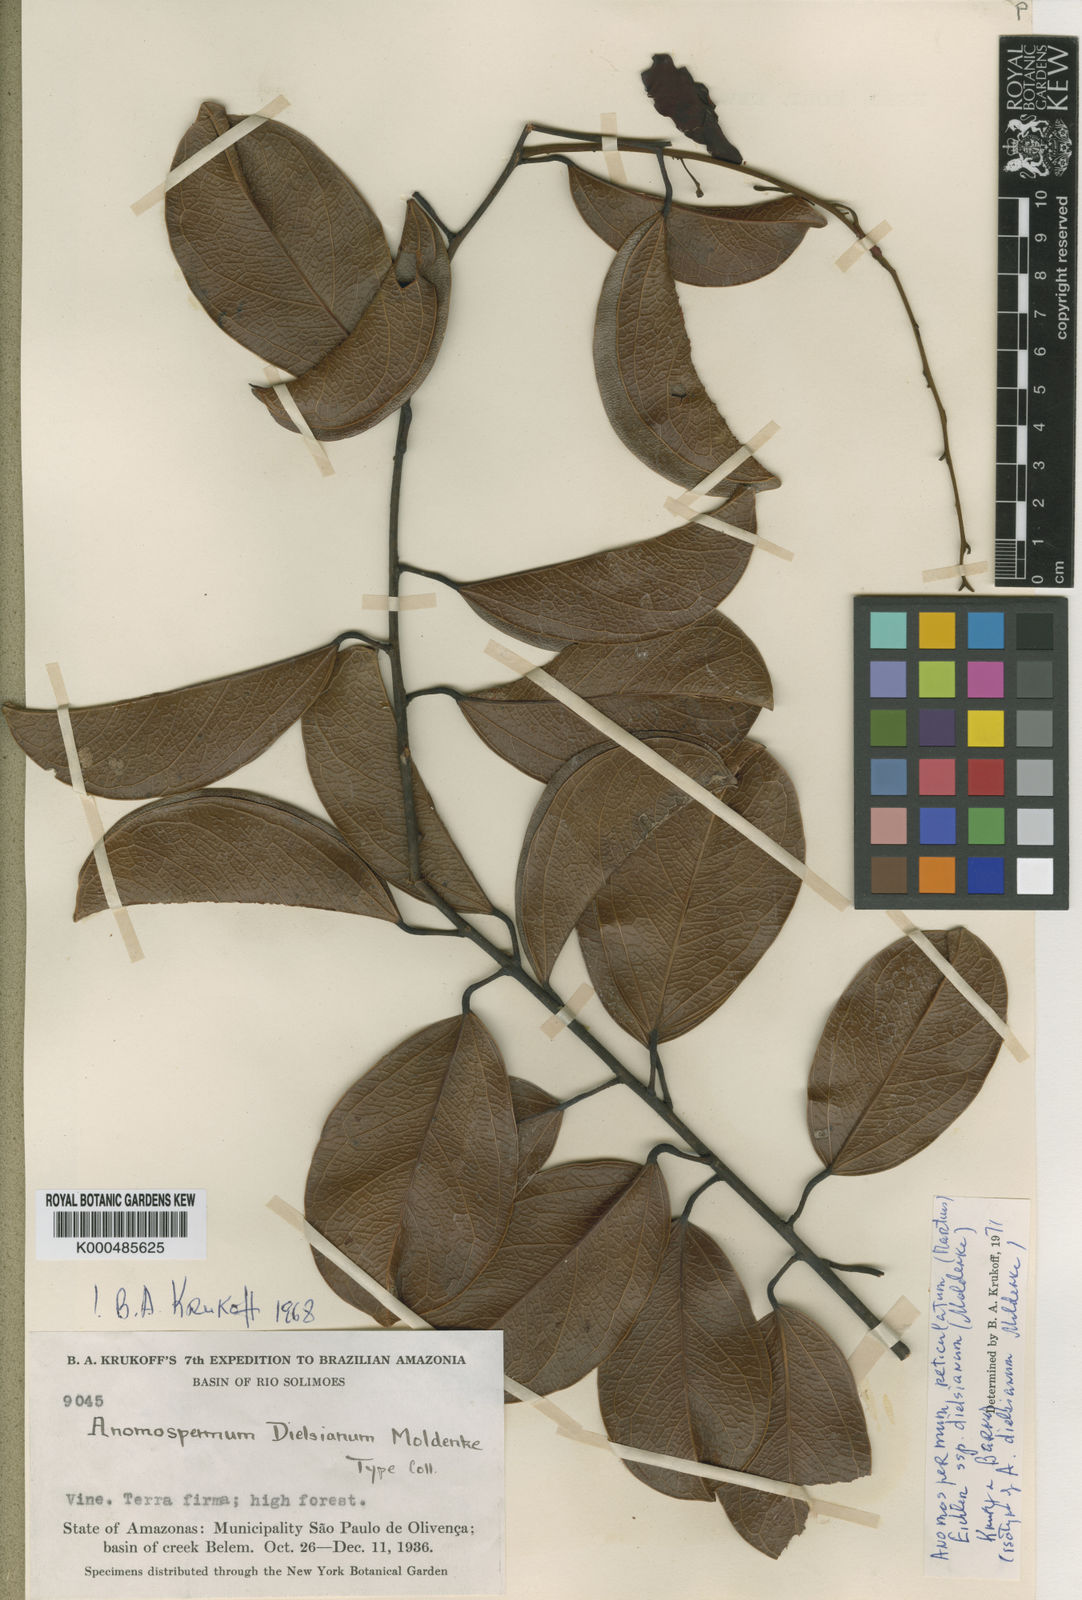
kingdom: Plantae
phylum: Tracheophyta
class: Magnoliopsida
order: Ranunculales
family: Menispermaceae
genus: Anomospermum
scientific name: Anomospermum reticulatum
